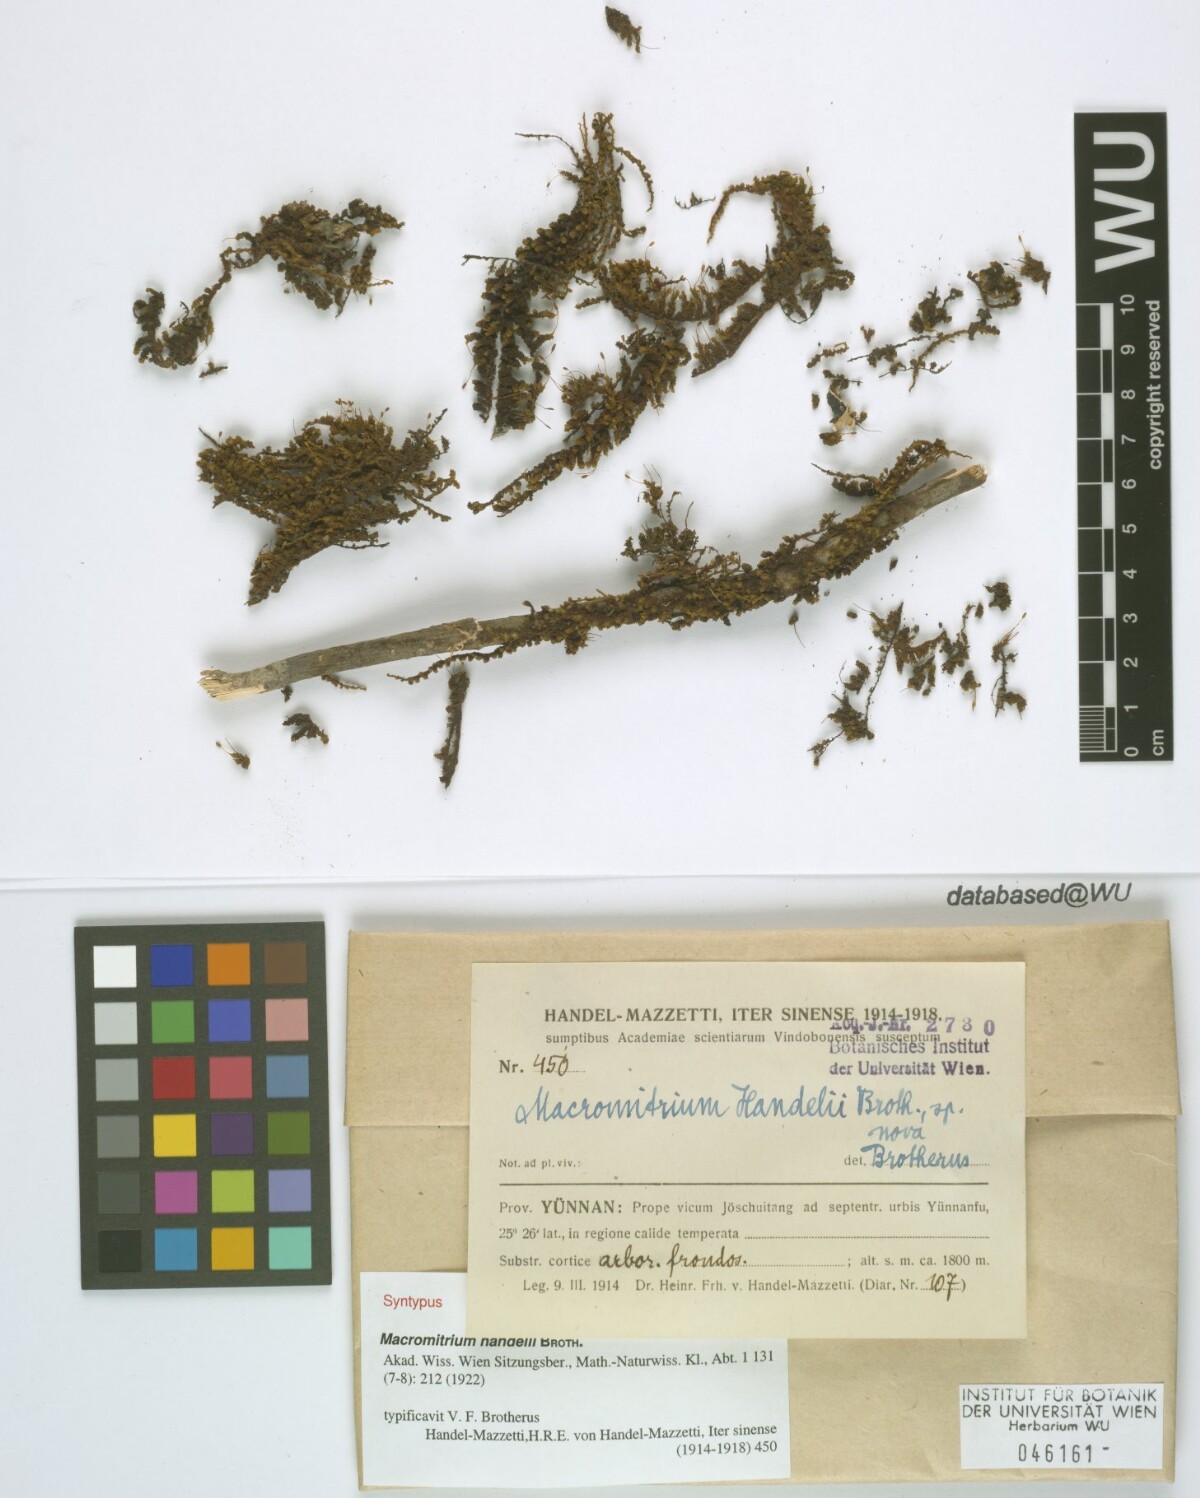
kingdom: Plantae
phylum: Bryophyta
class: Bryopsida
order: Orthotrichales
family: Orthotrichaceae
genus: Macromitrium
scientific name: Macromitrium cavaleriei
